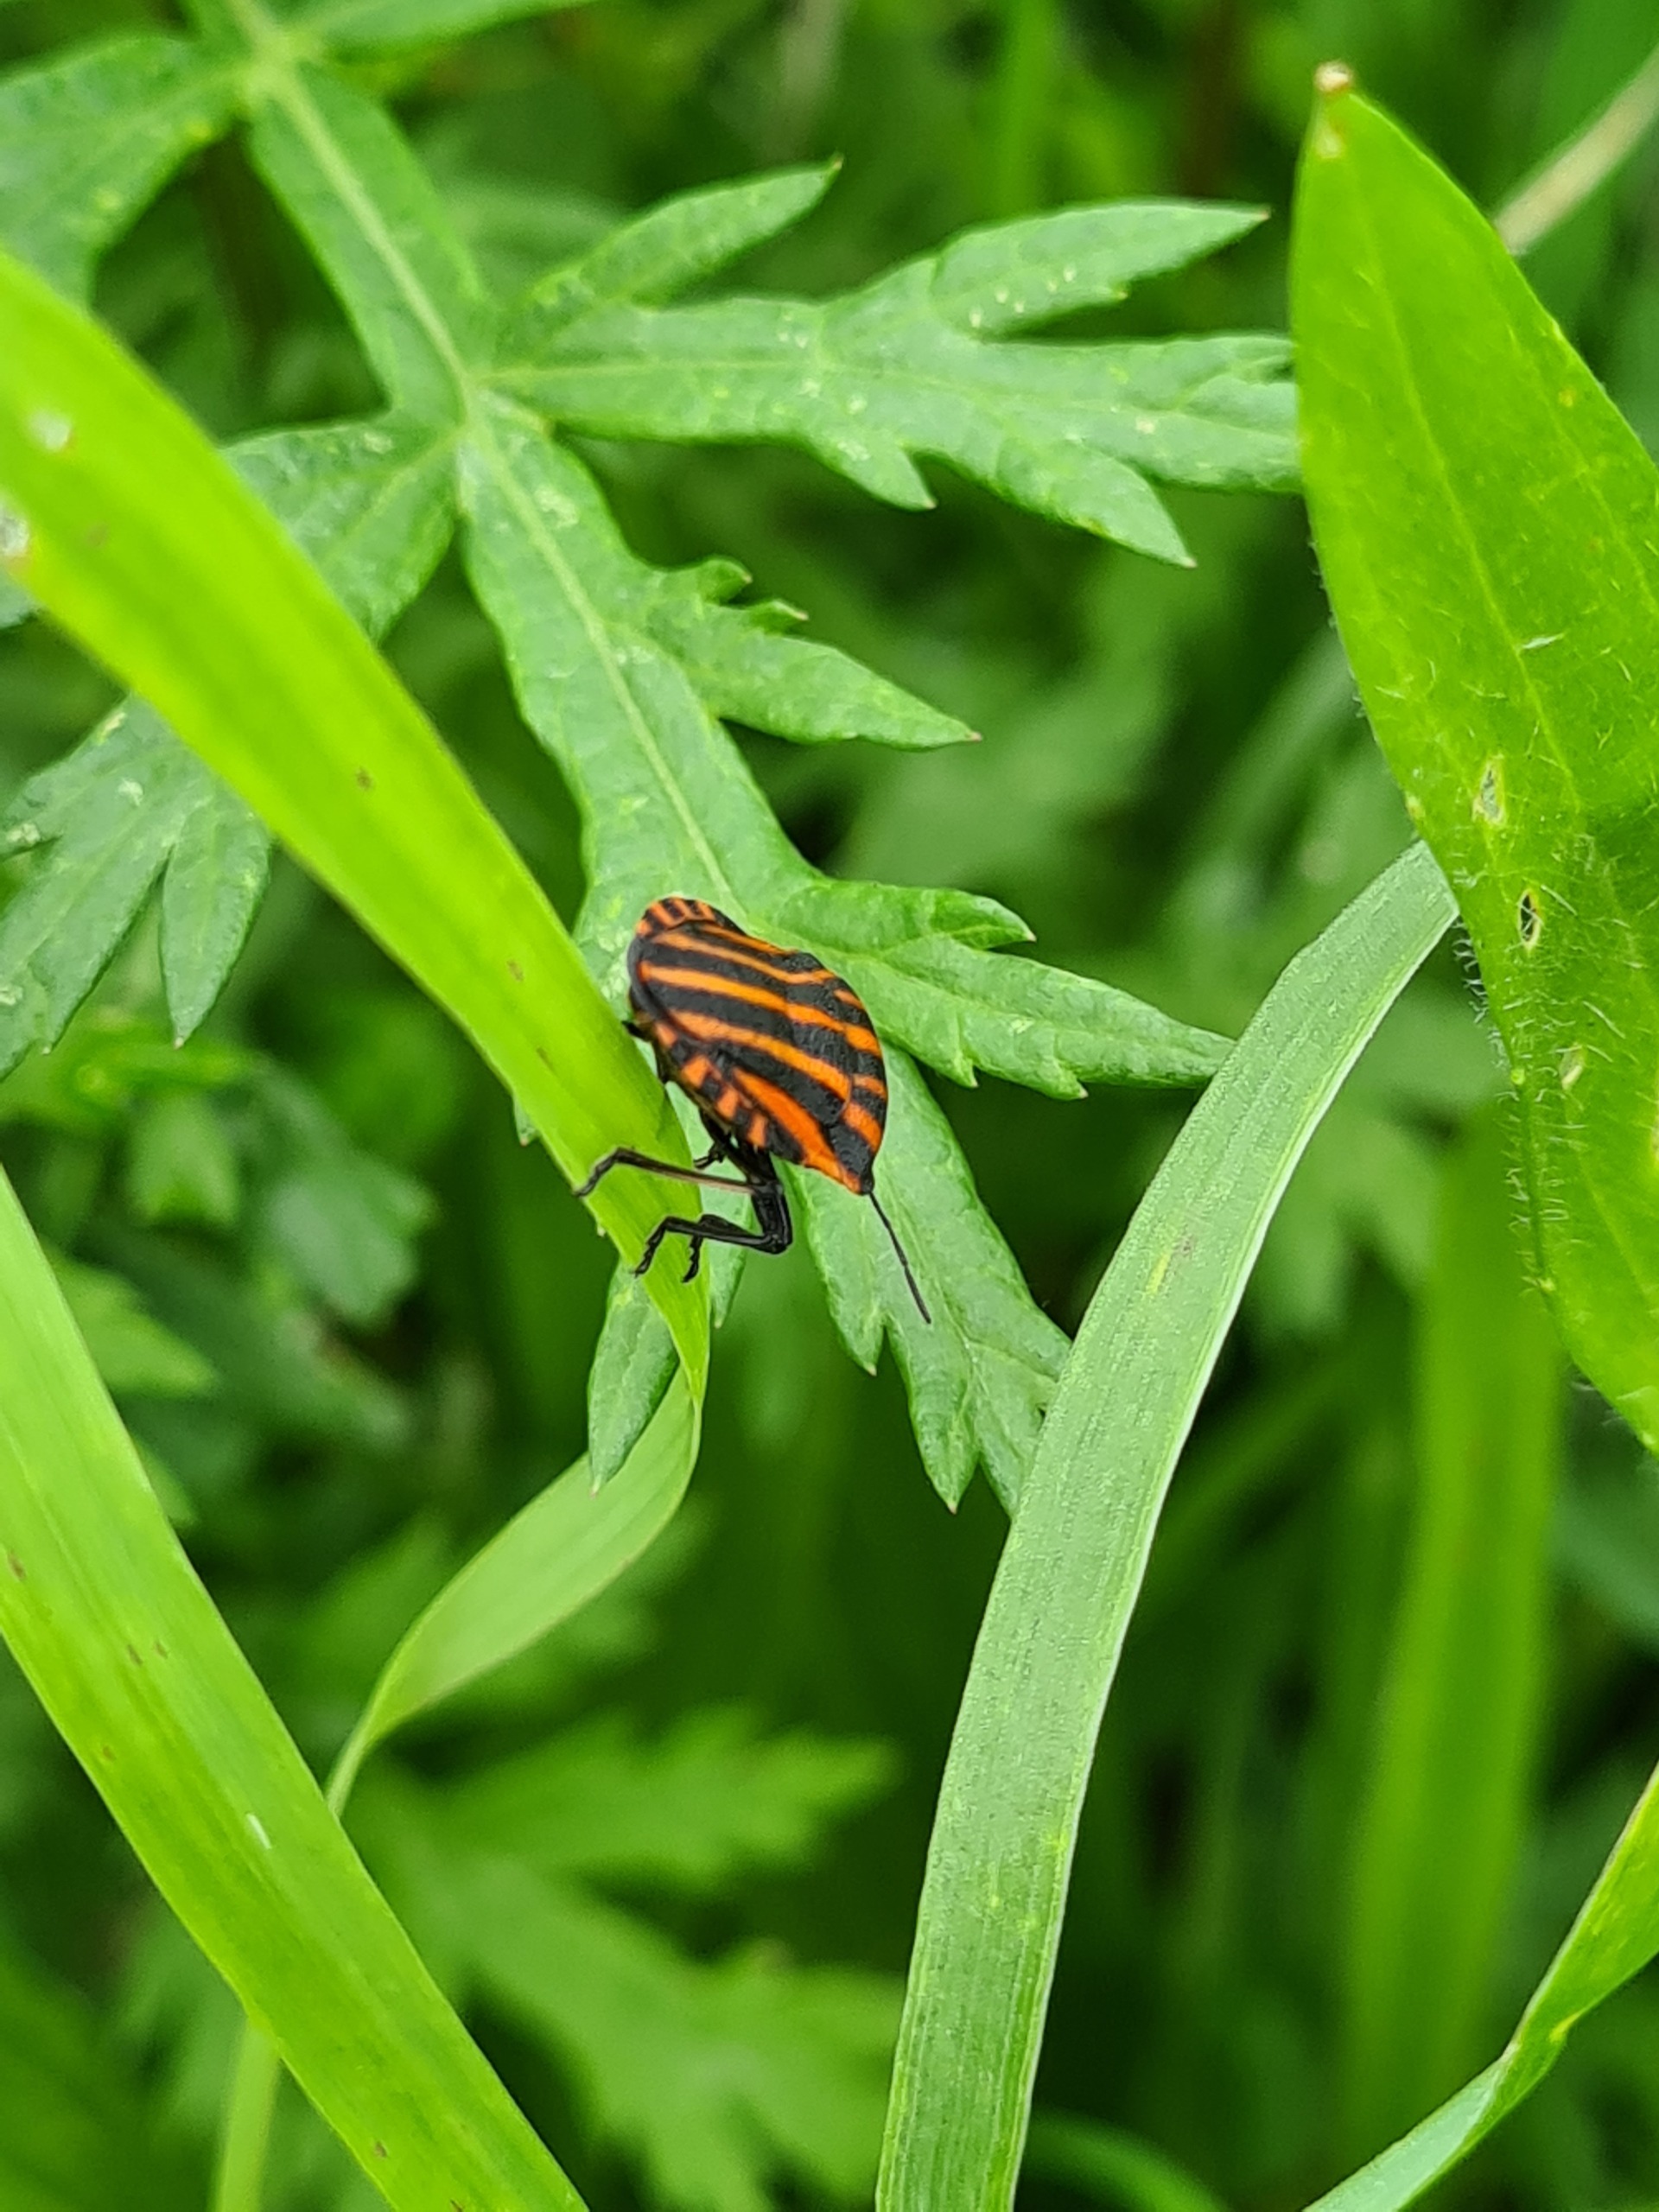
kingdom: Animalia
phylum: Arthropoda
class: Insecta
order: Hemiptera
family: Pentatomidae
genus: Graphosoma
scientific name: Graphosoma italicum
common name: Stribetæge
